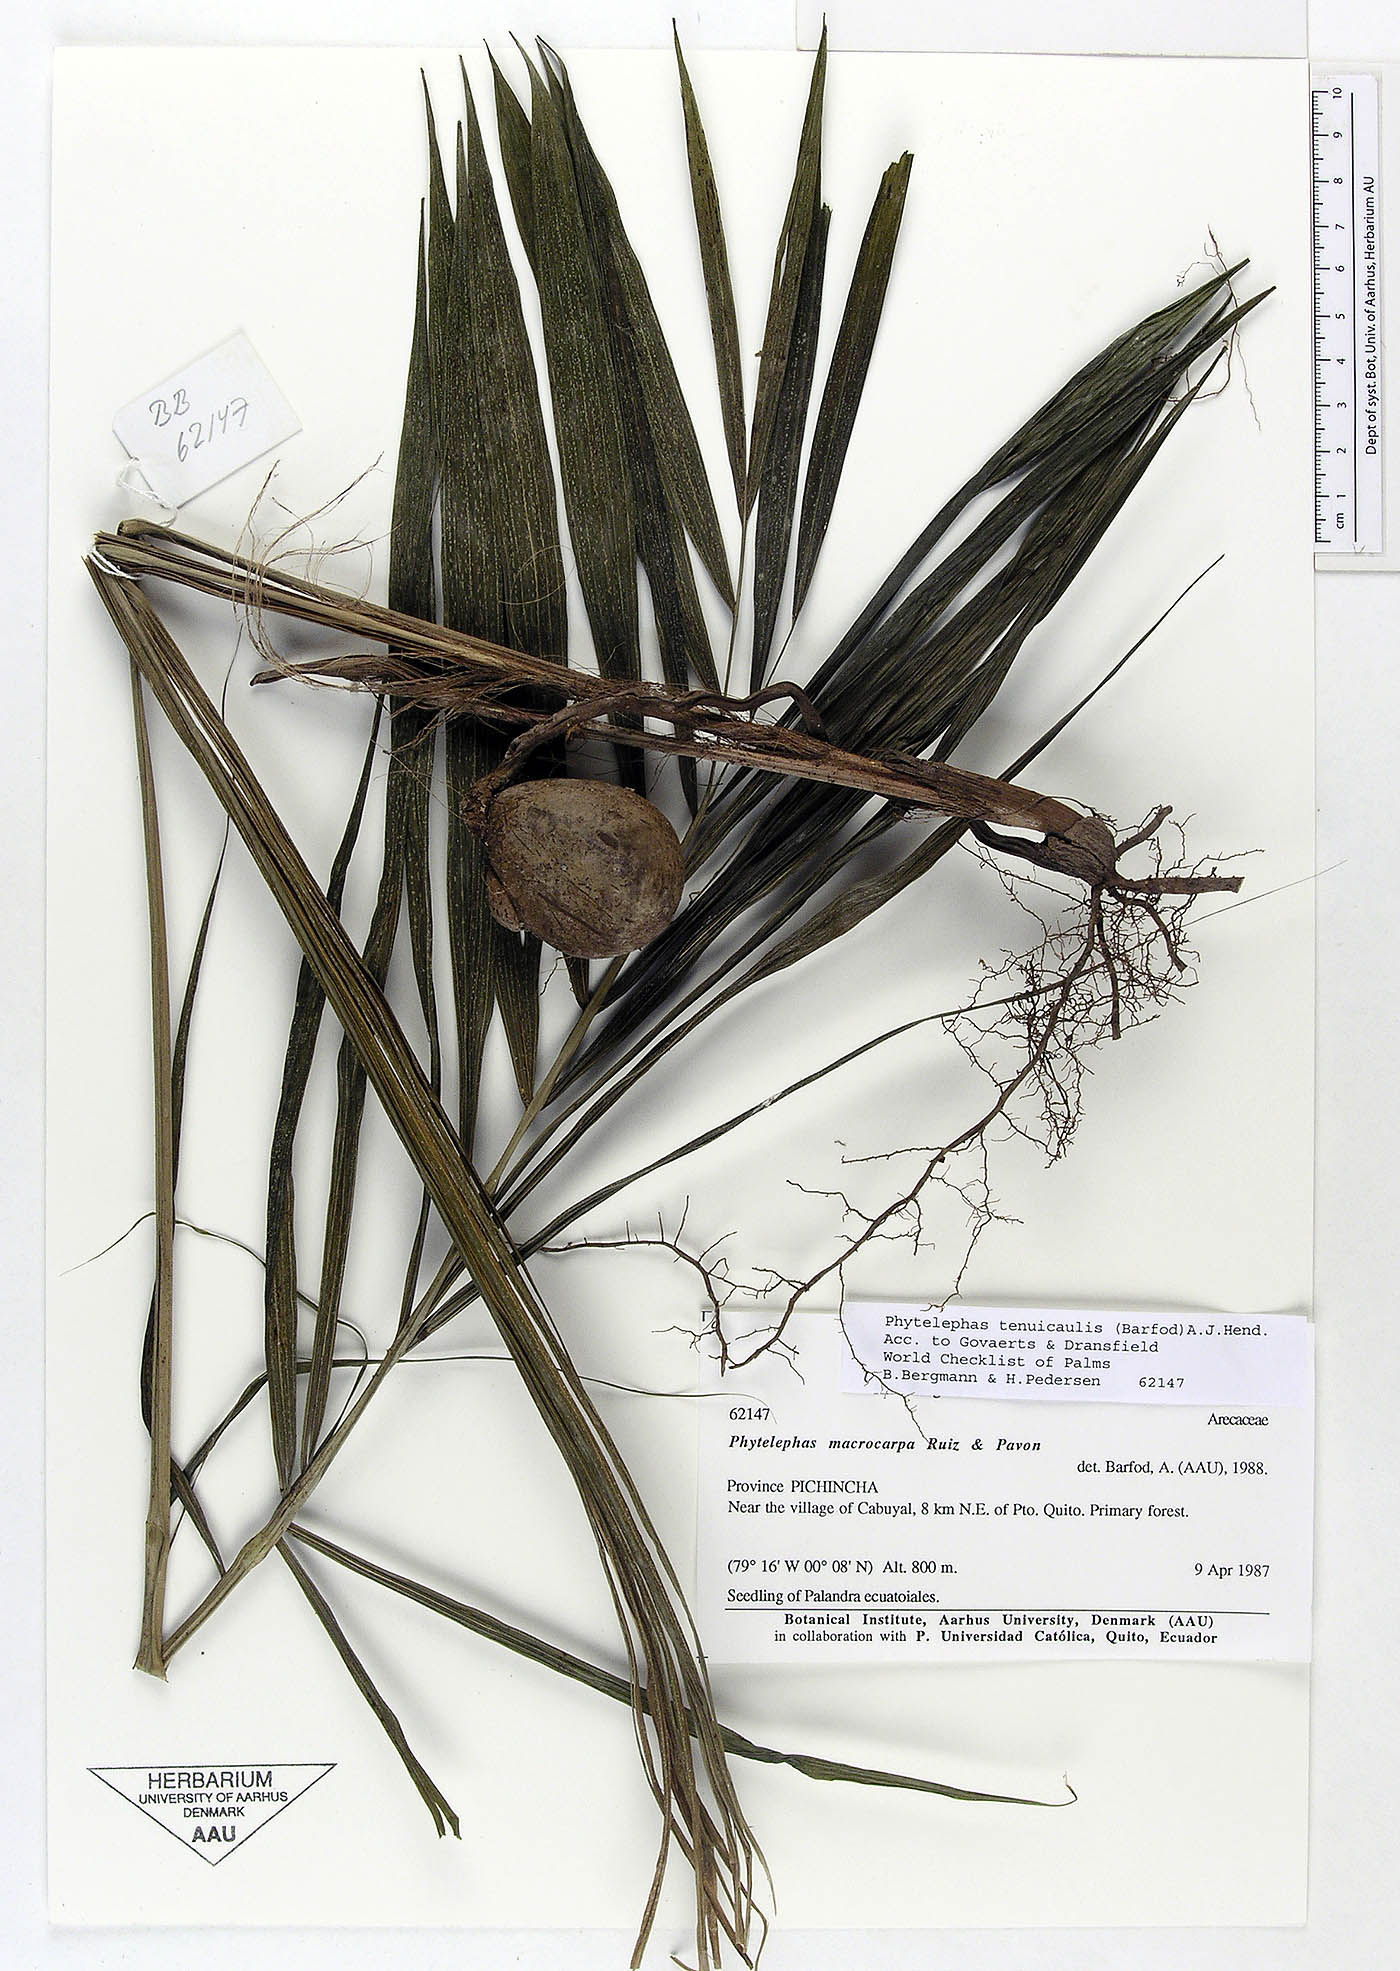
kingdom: Plantae
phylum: Tracheophyta
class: Liliopsida
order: Arecales
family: Arecaceae
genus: Phytelephas
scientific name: Phytelephas tenuicaulis
